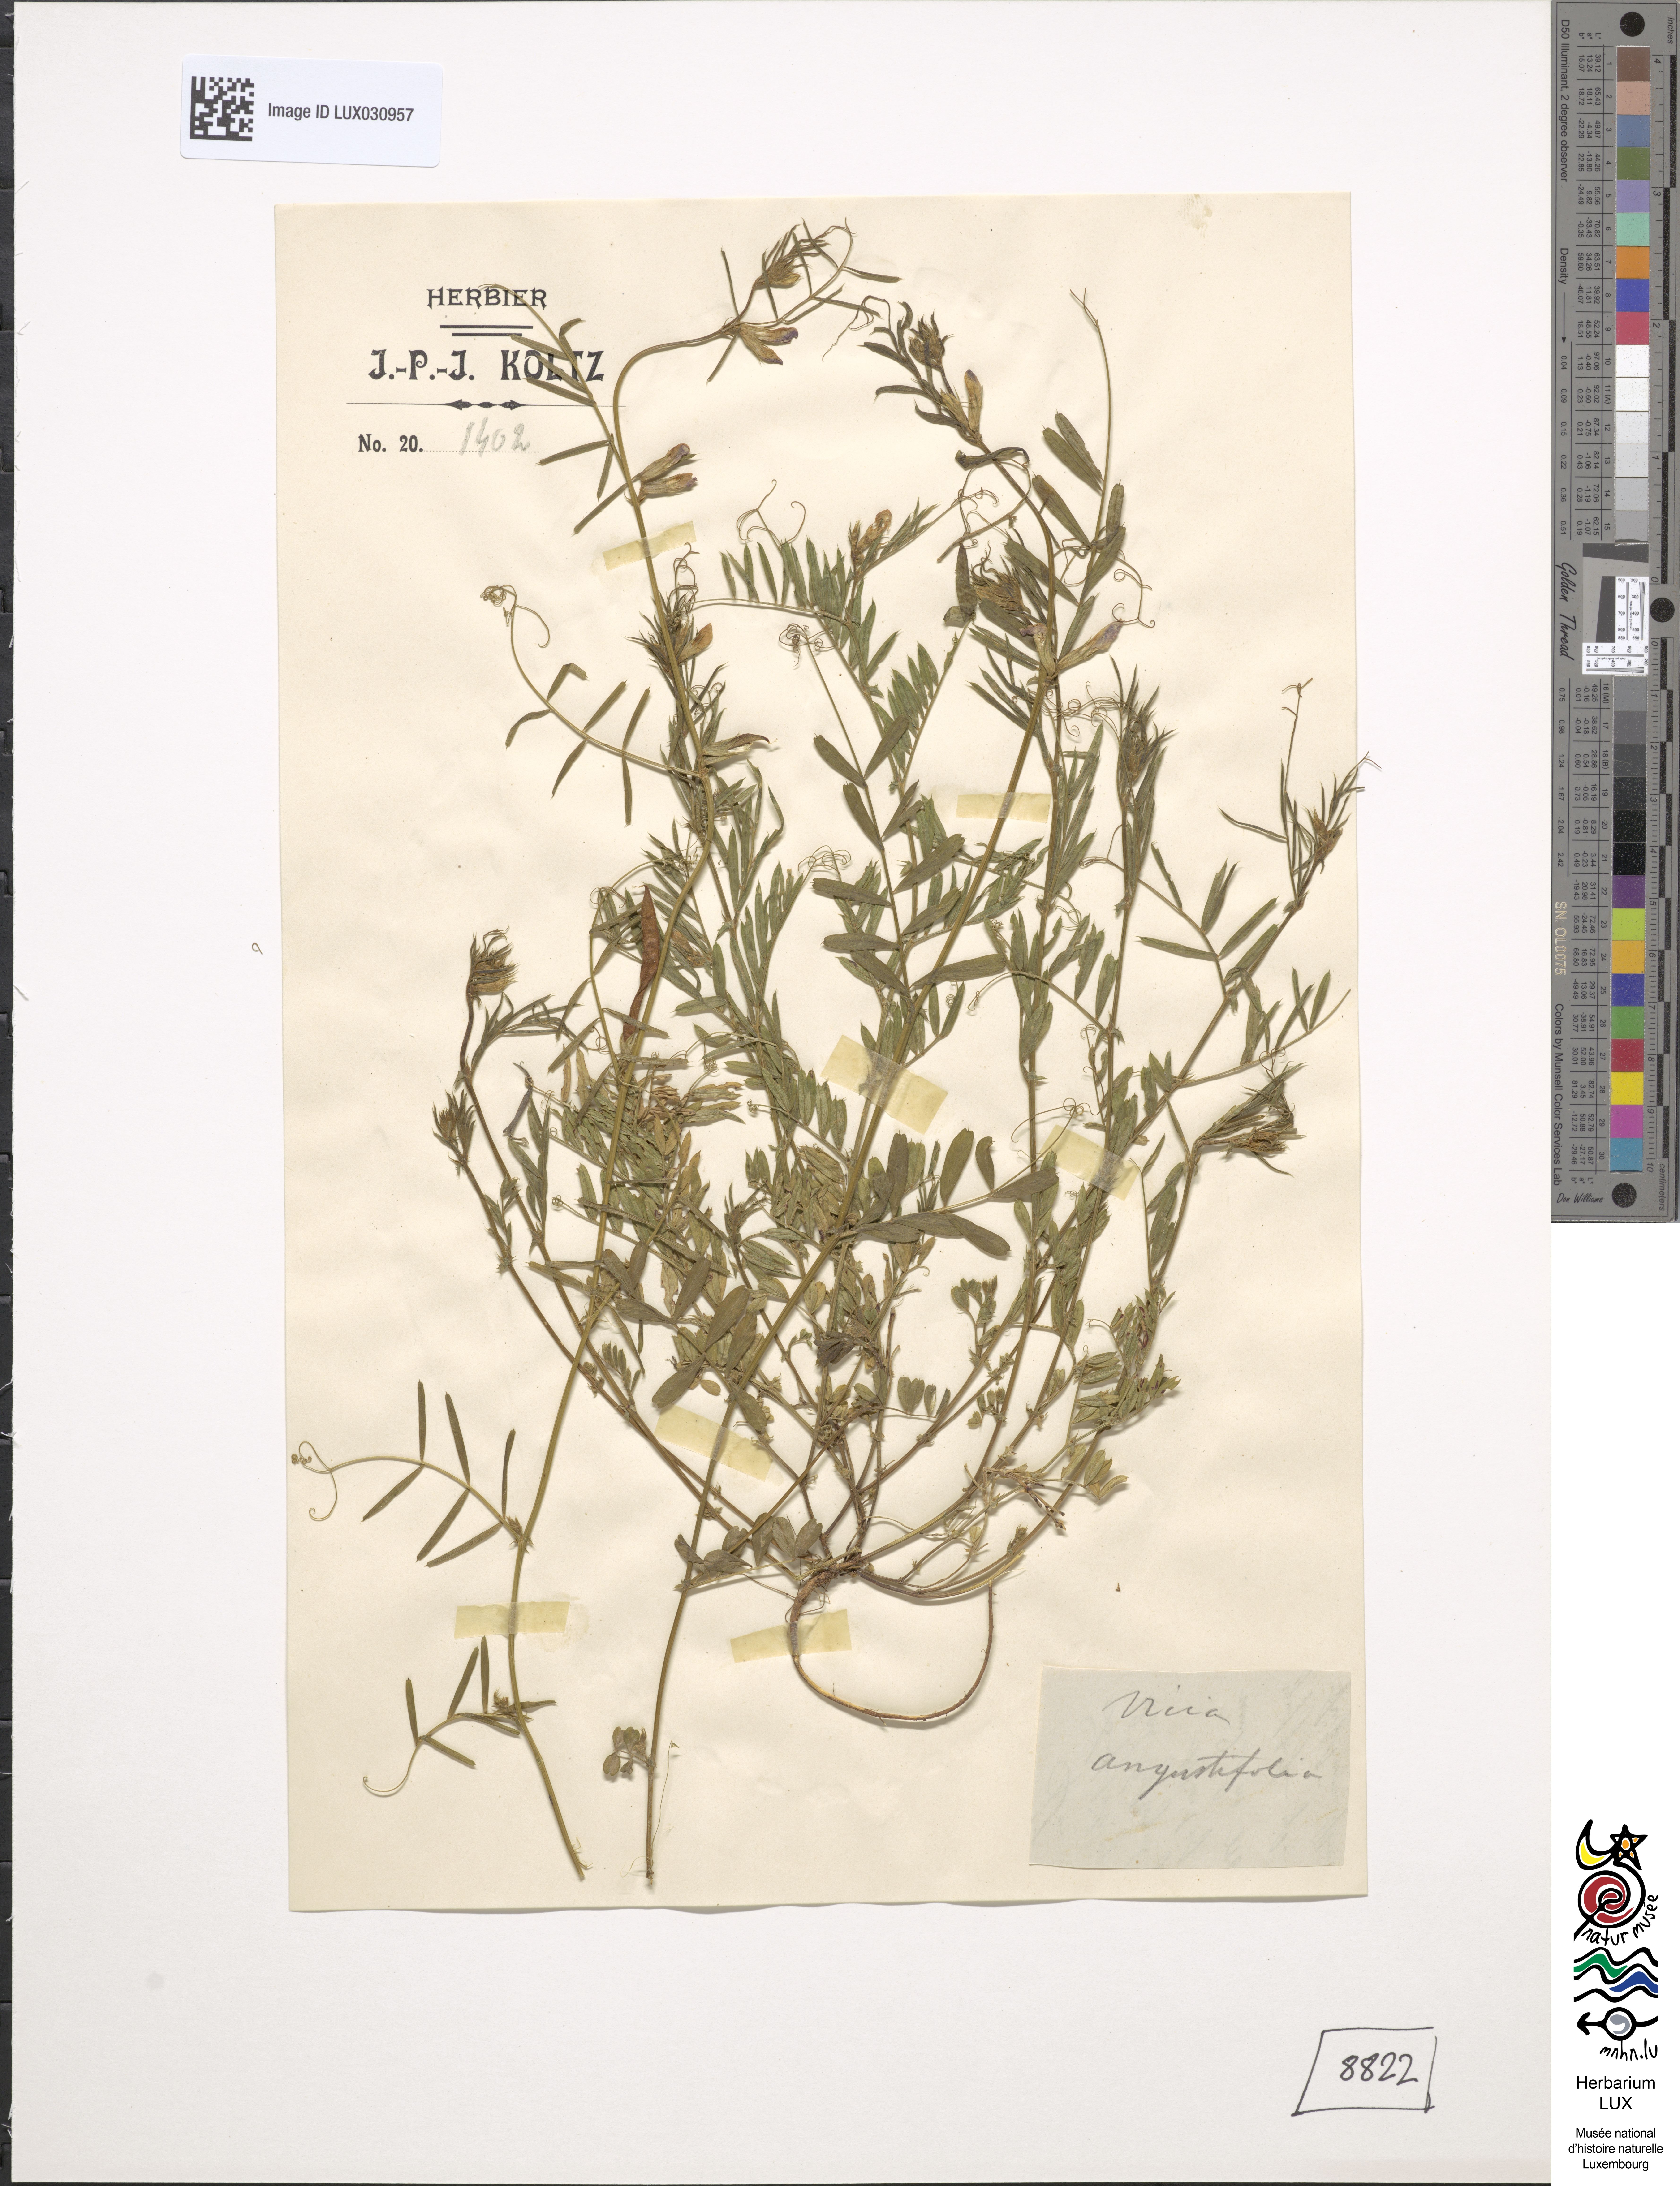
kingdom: Plantae
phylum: Tracheophyta
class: Magnoliopsida
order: Fabales
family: Fabaceae
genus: Vicia
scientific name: Vicia sativa
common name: Garden vetch
